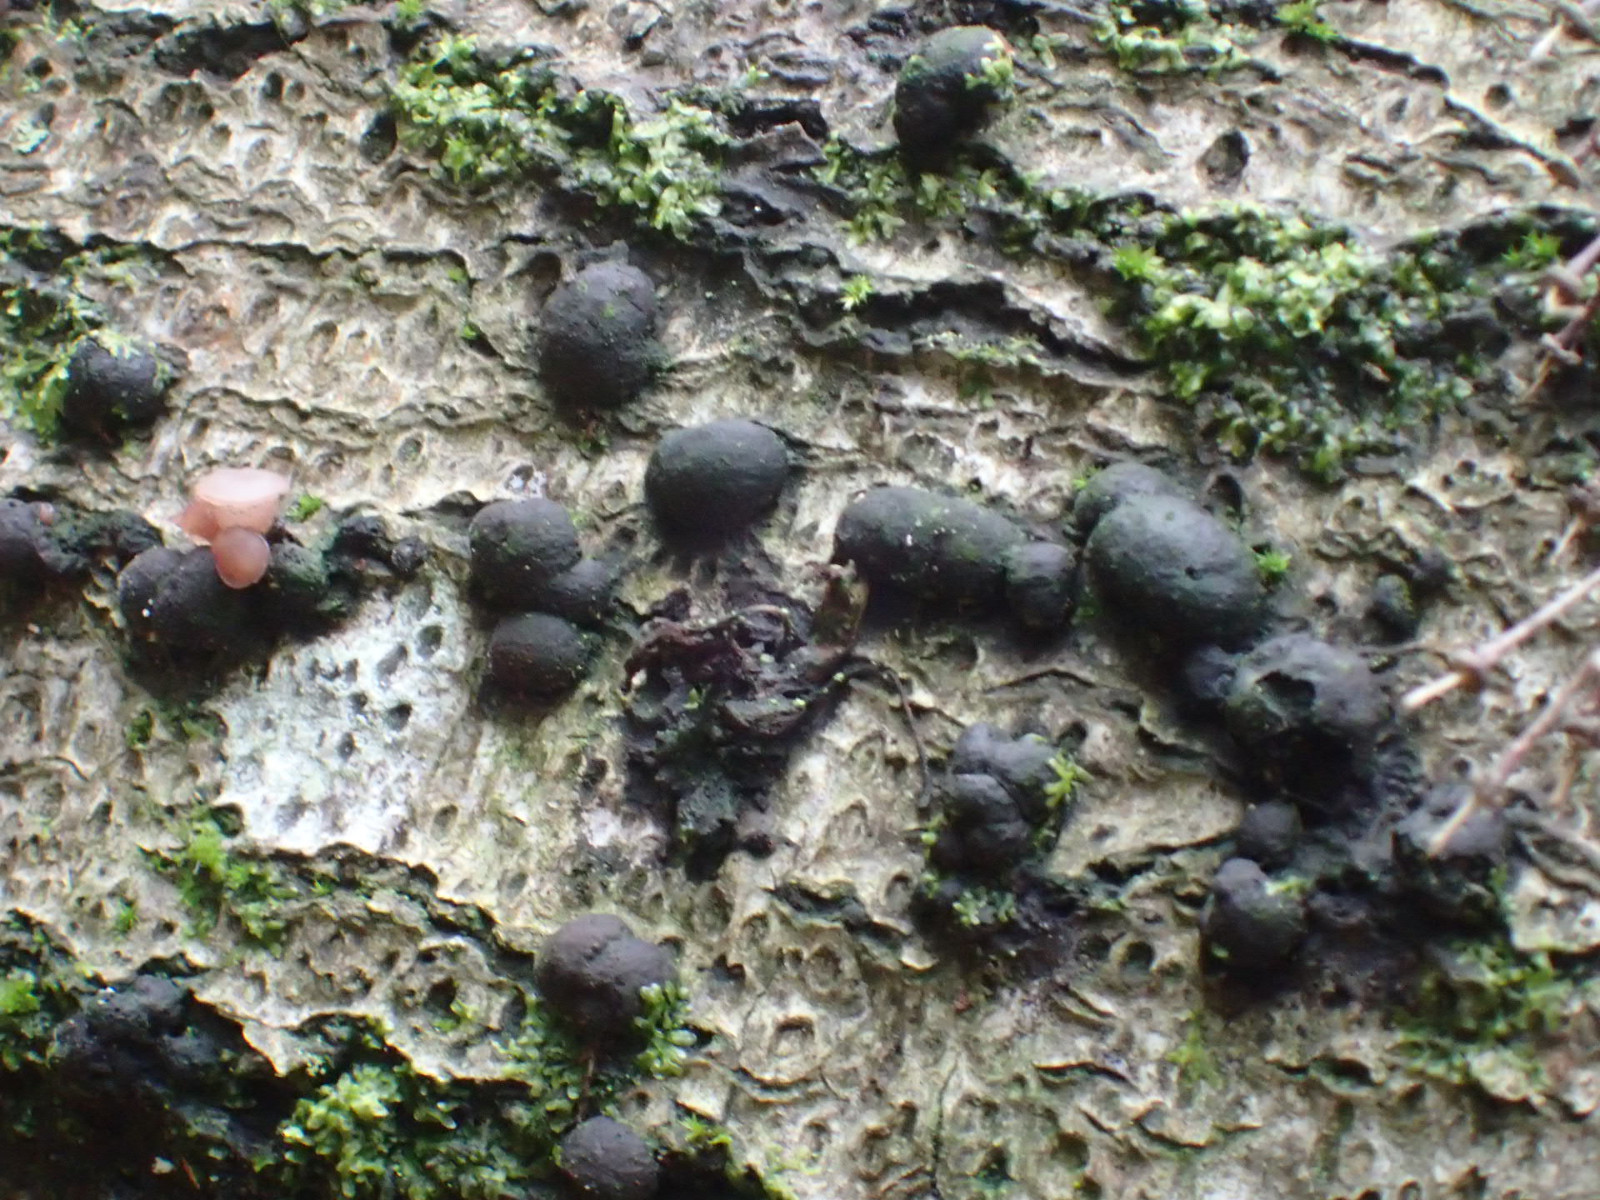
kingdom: Fungi
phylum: Ascomycota
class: Sordariomycetes
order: Xylariales
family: Xylariaceae
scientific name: Xylariaceae
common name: stødsvampfamilien
